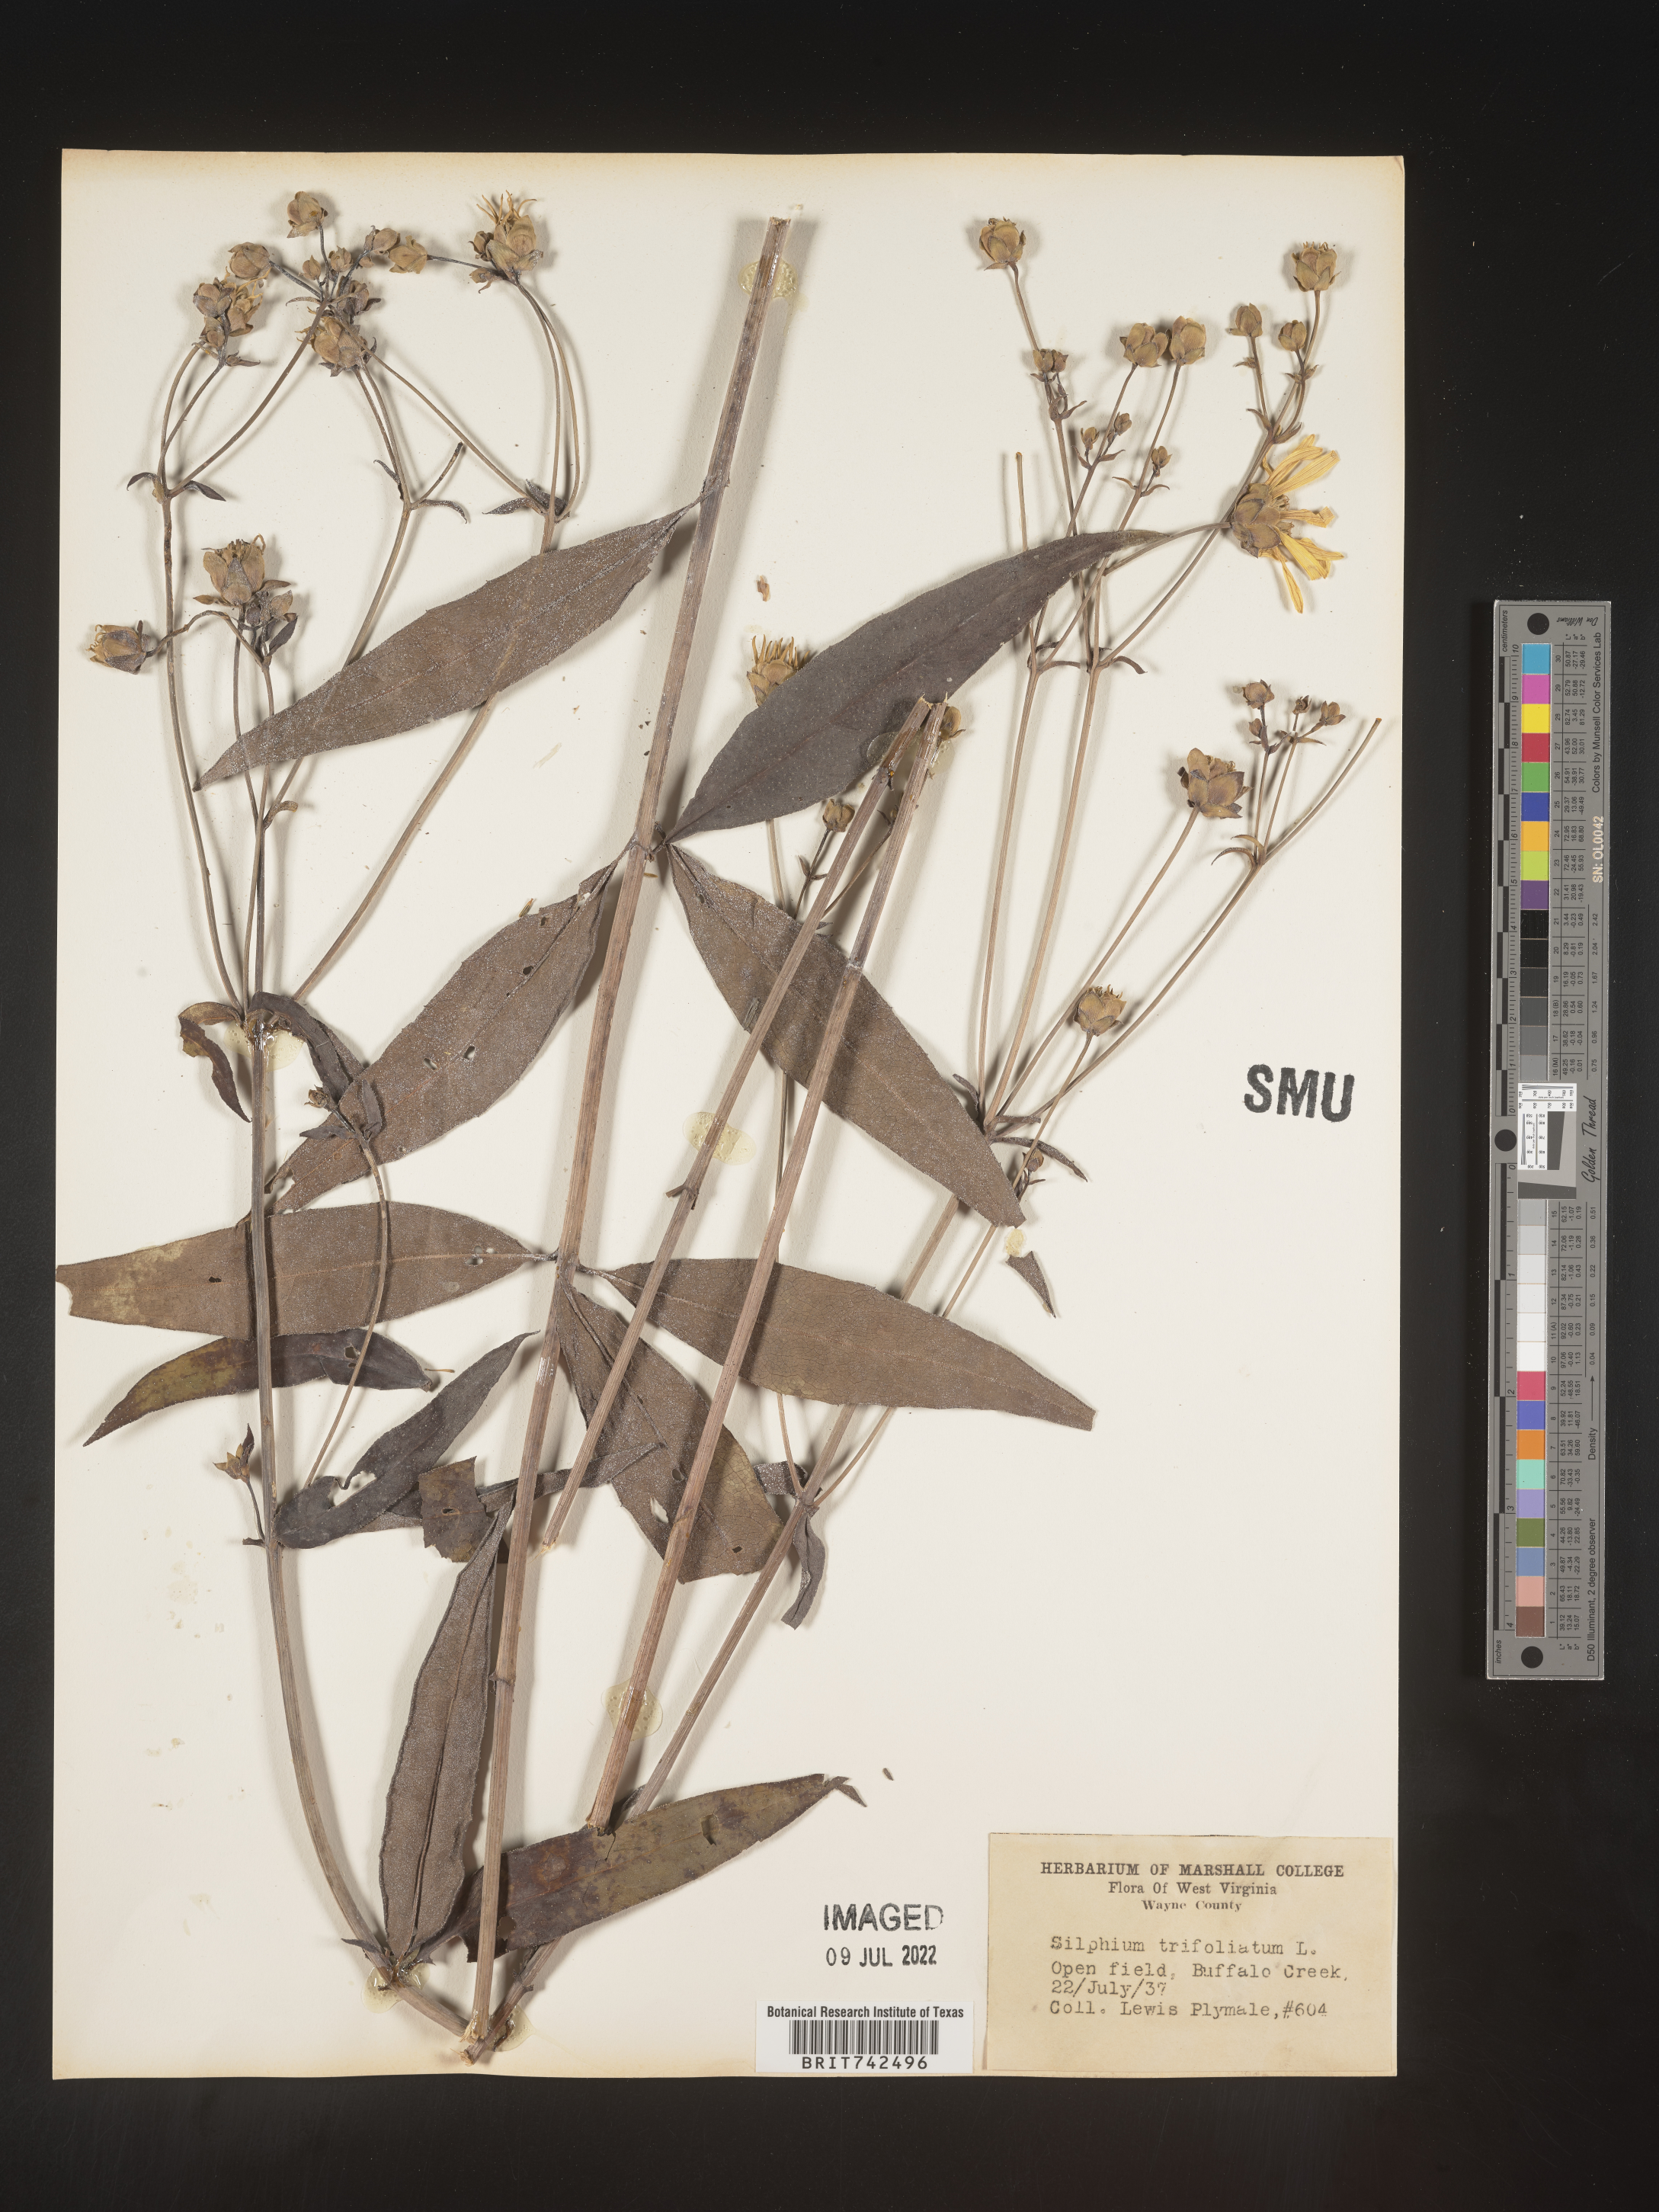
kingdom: Plantae
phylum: Tracheophyta
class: Magnoliopsida
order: Asterales
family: Asteraceae
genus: Silphium
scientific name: Silphium asteriscus
